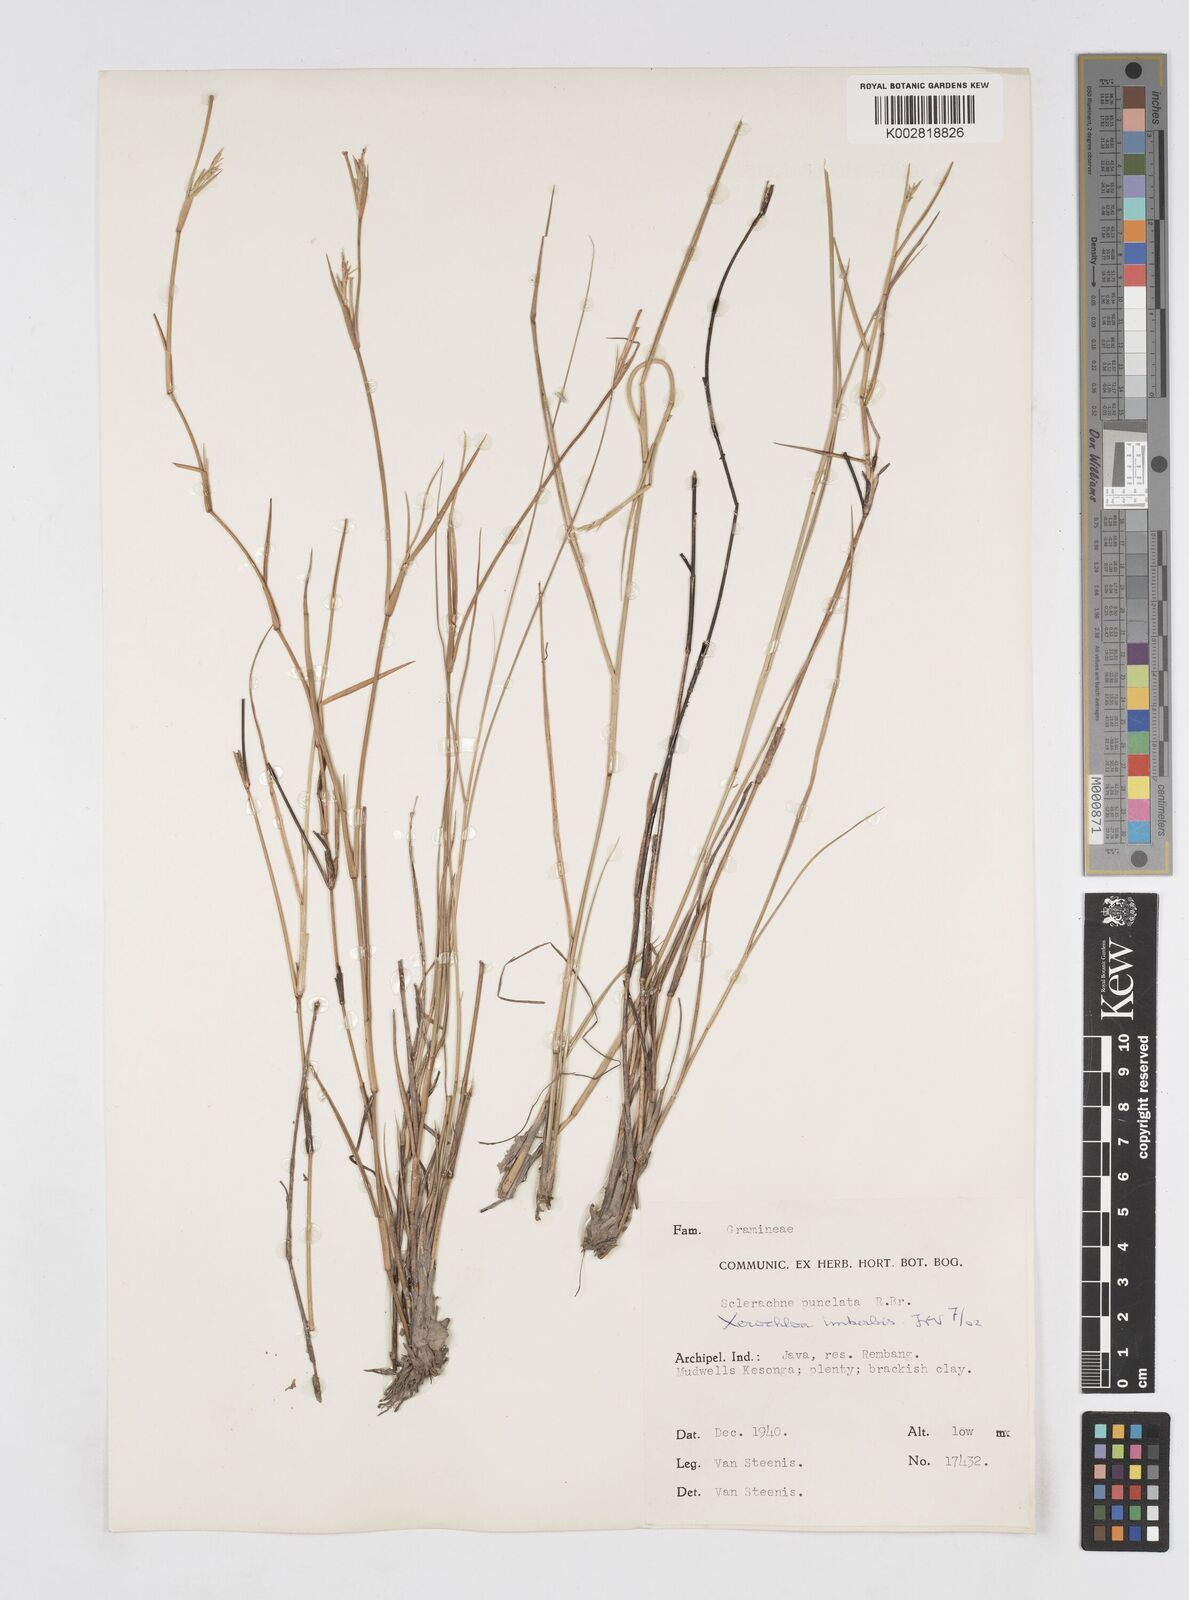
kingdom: Plantae
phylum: Tracheophyta
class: Liliopsida
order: Poales
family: Poaceae
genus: Xerochloa
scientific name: Xerochloa imberbis
